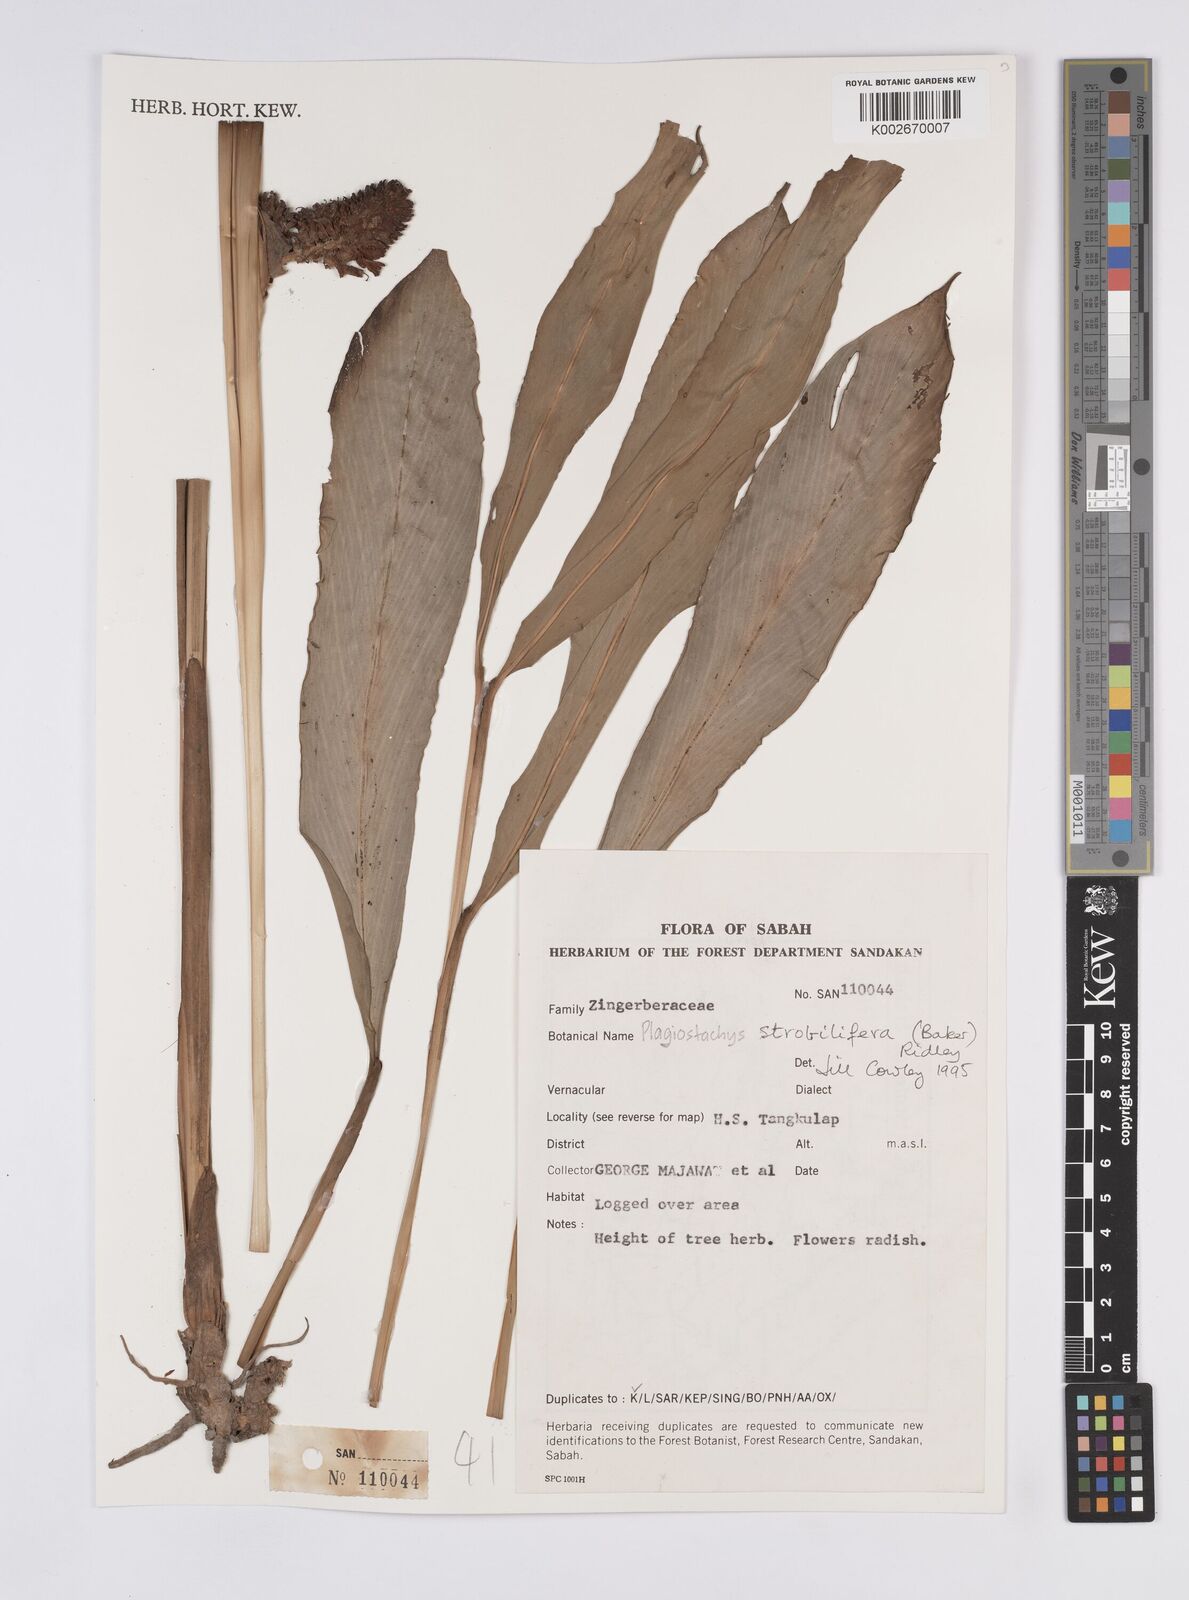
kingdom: Plantae
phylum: Tracheophyta
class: Liliopsida
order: Zingiberales
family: Zingiberaceae
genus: Plagiostachys
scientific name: Plagiostachys strobilifera
